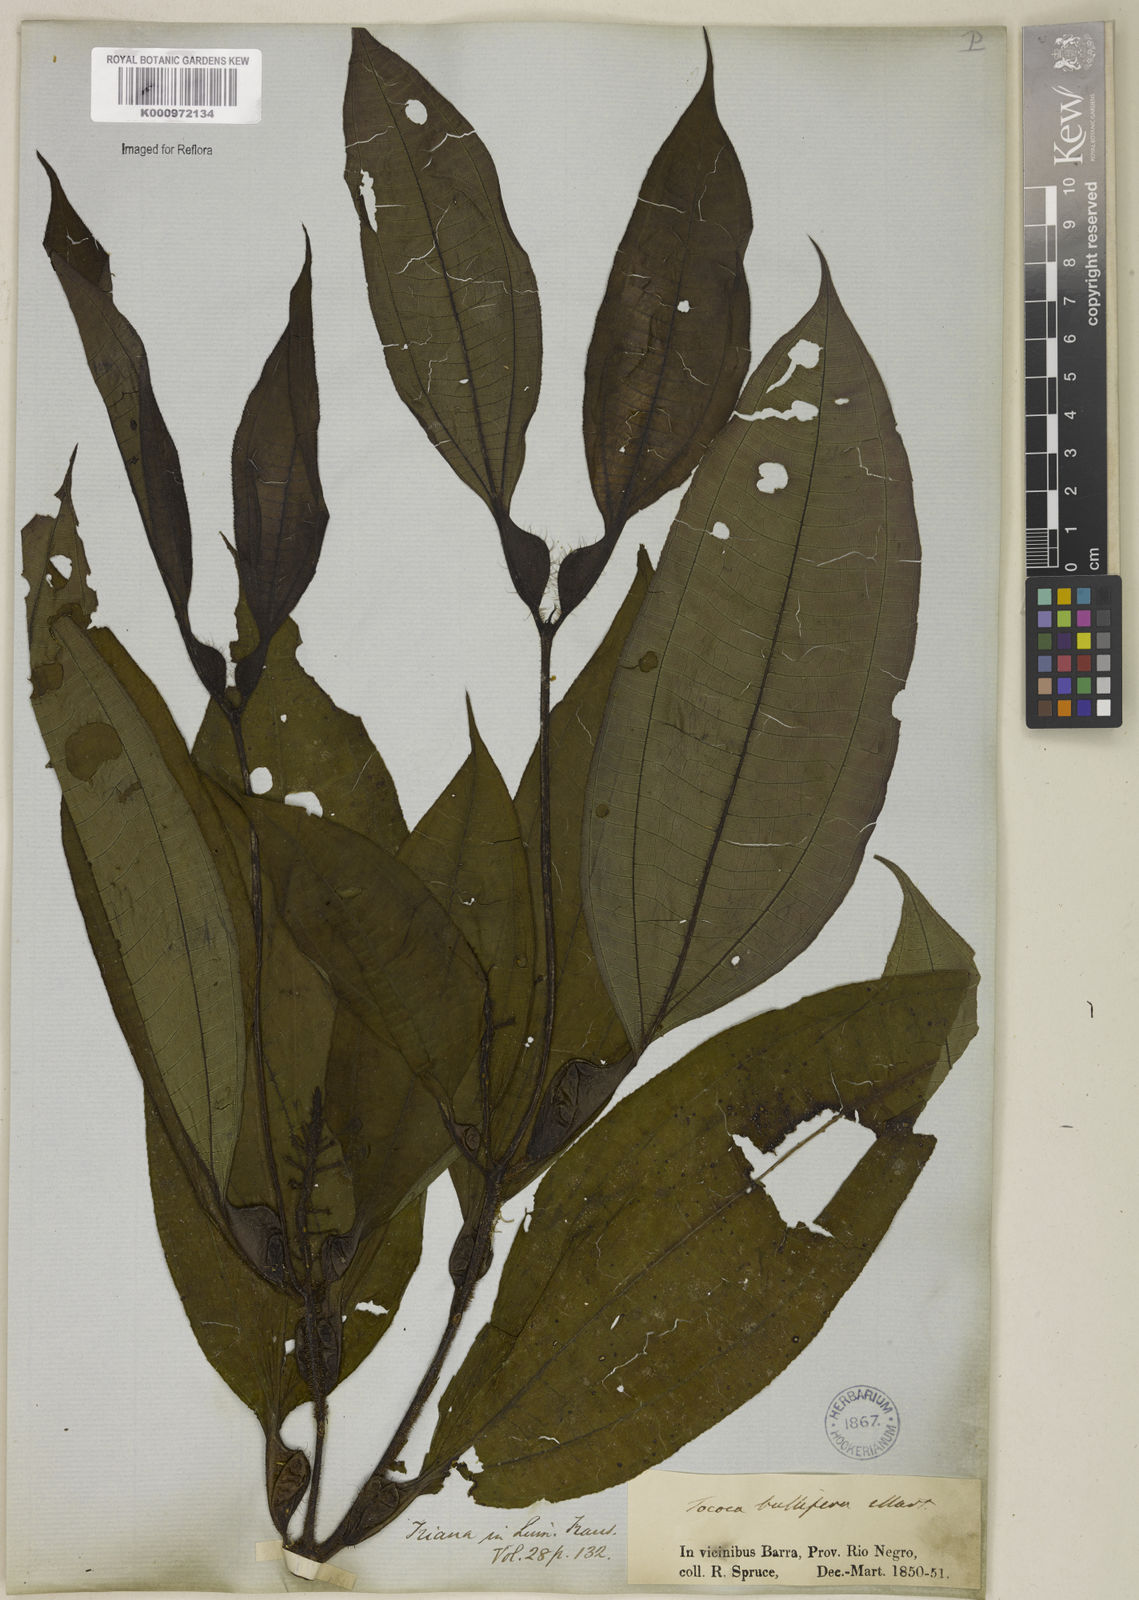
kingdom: Plantae
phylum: Tracheophyta
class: Magnoliopsida
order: Myrtales
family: Melastomataceae
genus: Miconia
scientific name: Miconia bullifera
